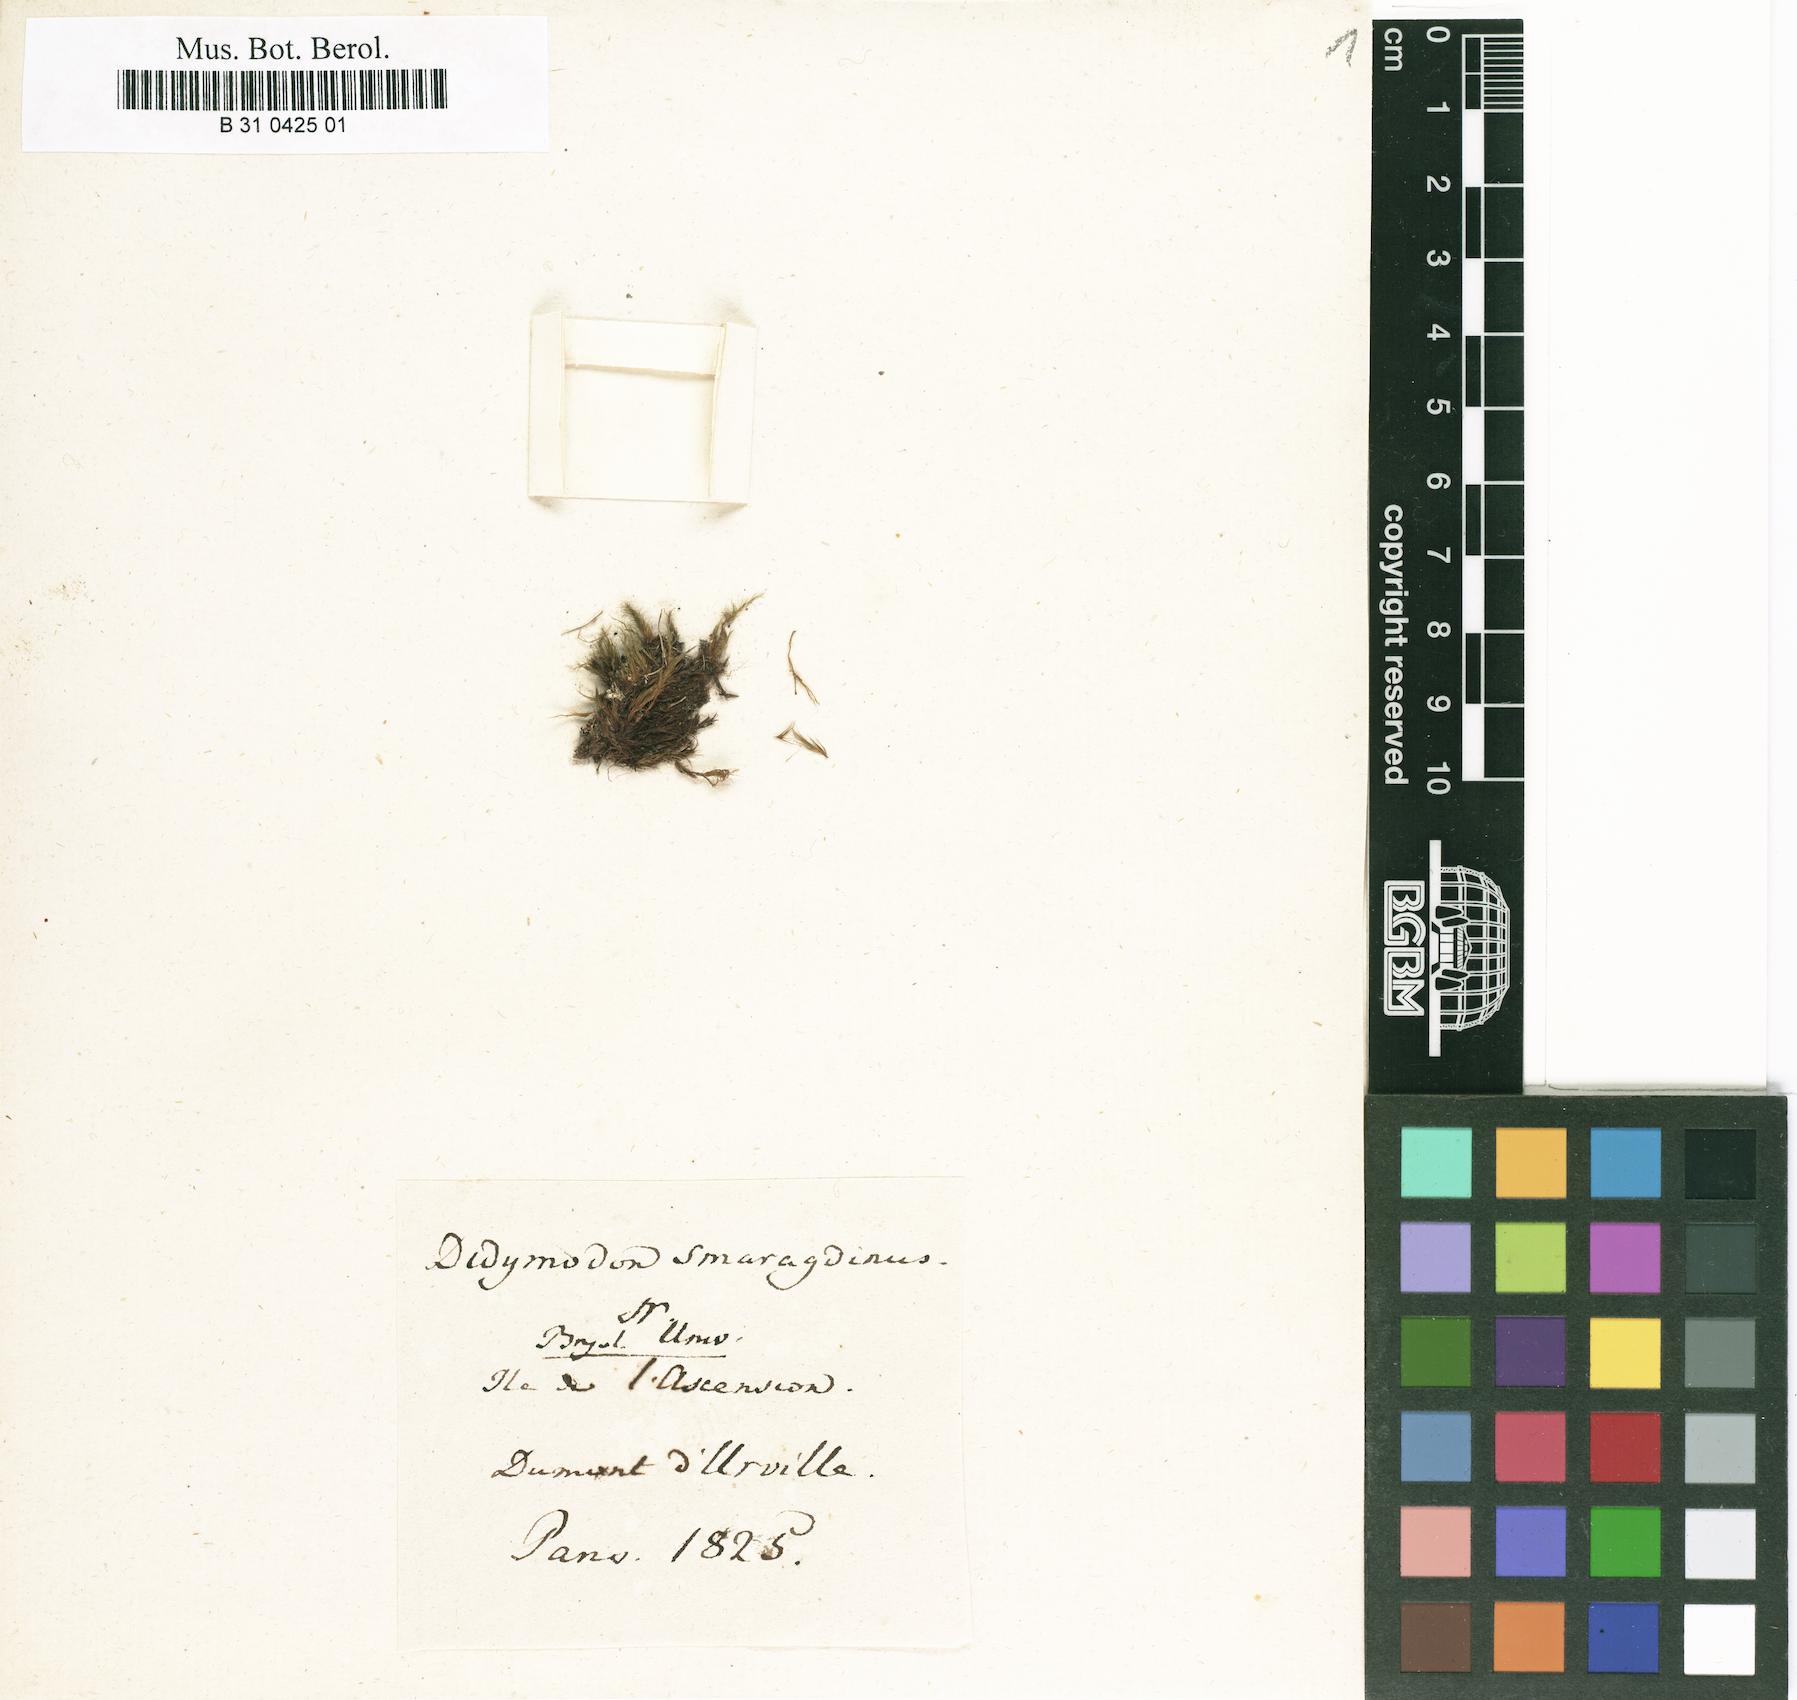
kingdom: Plantae
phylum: Bryophyta
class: Bryopsida
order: Dicranales
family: Leucobryaceae
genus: Campylopus
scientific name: Campylopus smaragdinus
